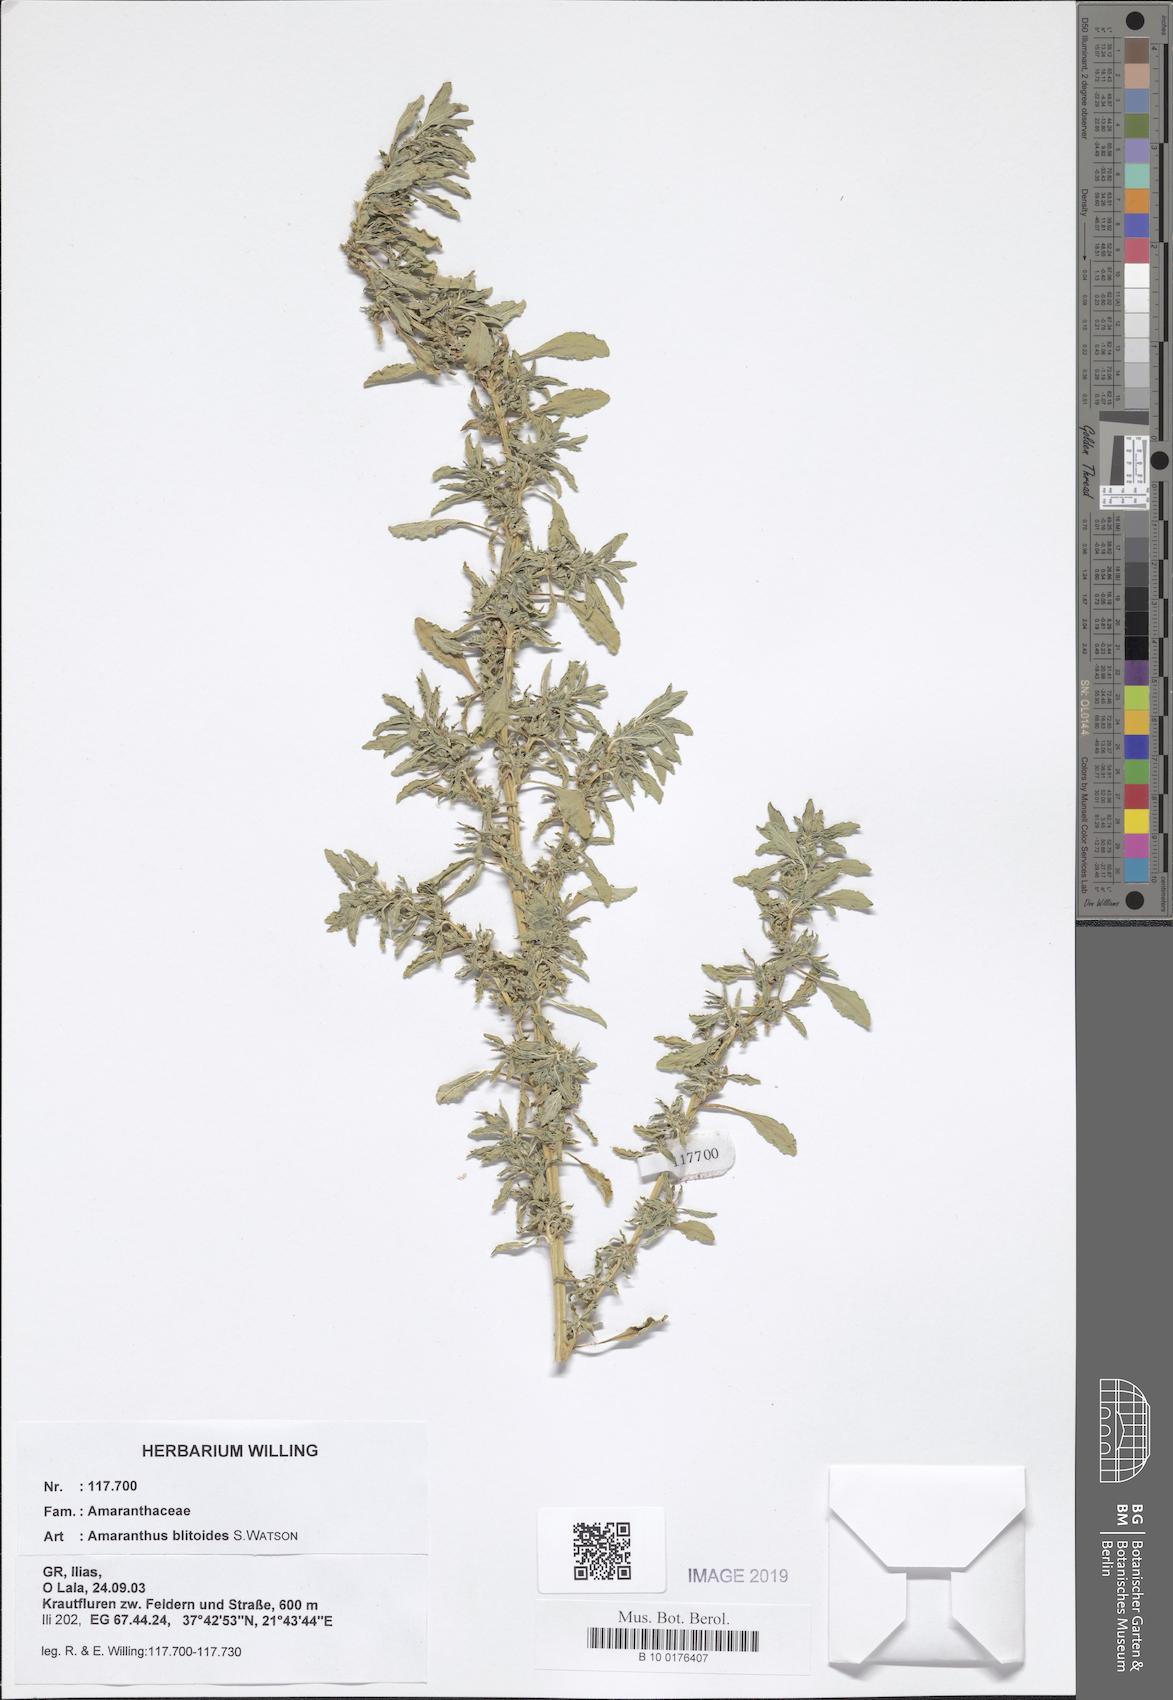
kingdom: Plantae
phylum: Tracheophyta
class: Magnoliopsida
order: Caryophyllales
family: Amaranthaceae
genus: Amaranthus
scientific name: Amaranthus blitoides
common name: Prostrate pigweed
